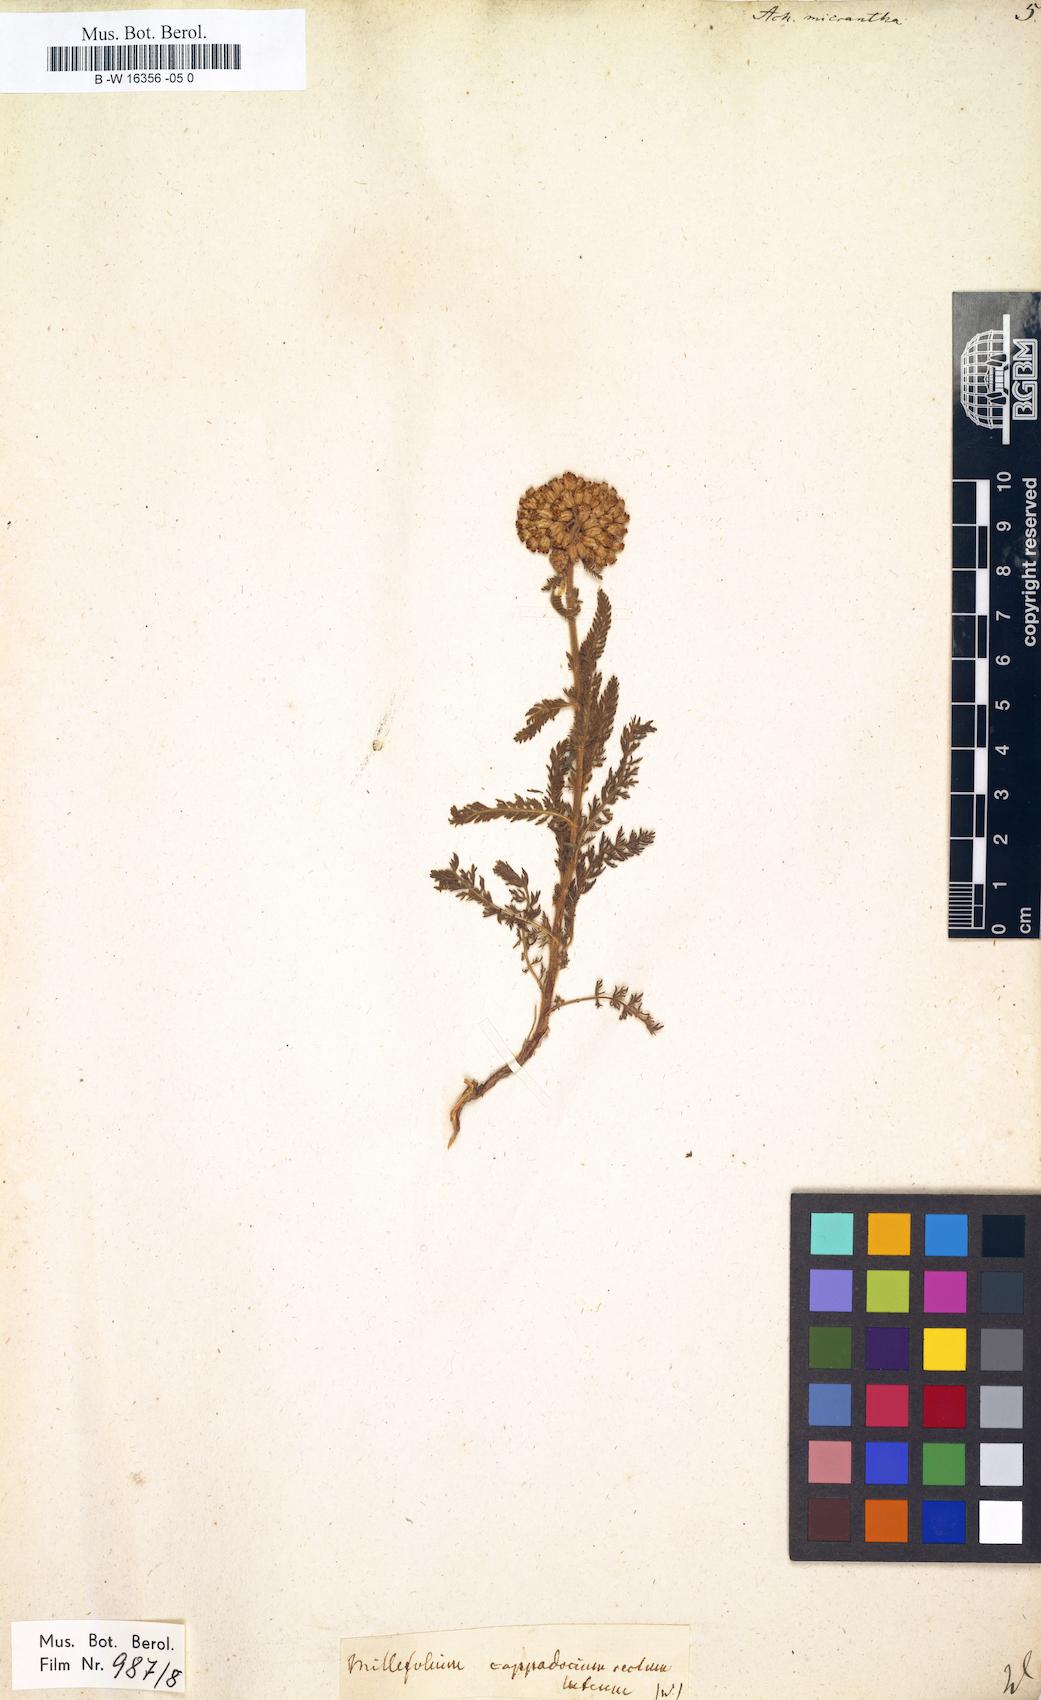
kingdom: Plantae
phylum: Tracheophyta
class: Magnoliopsida
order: Asterales
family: Asteraceae
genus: Achillea
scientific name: Achillea arabica
